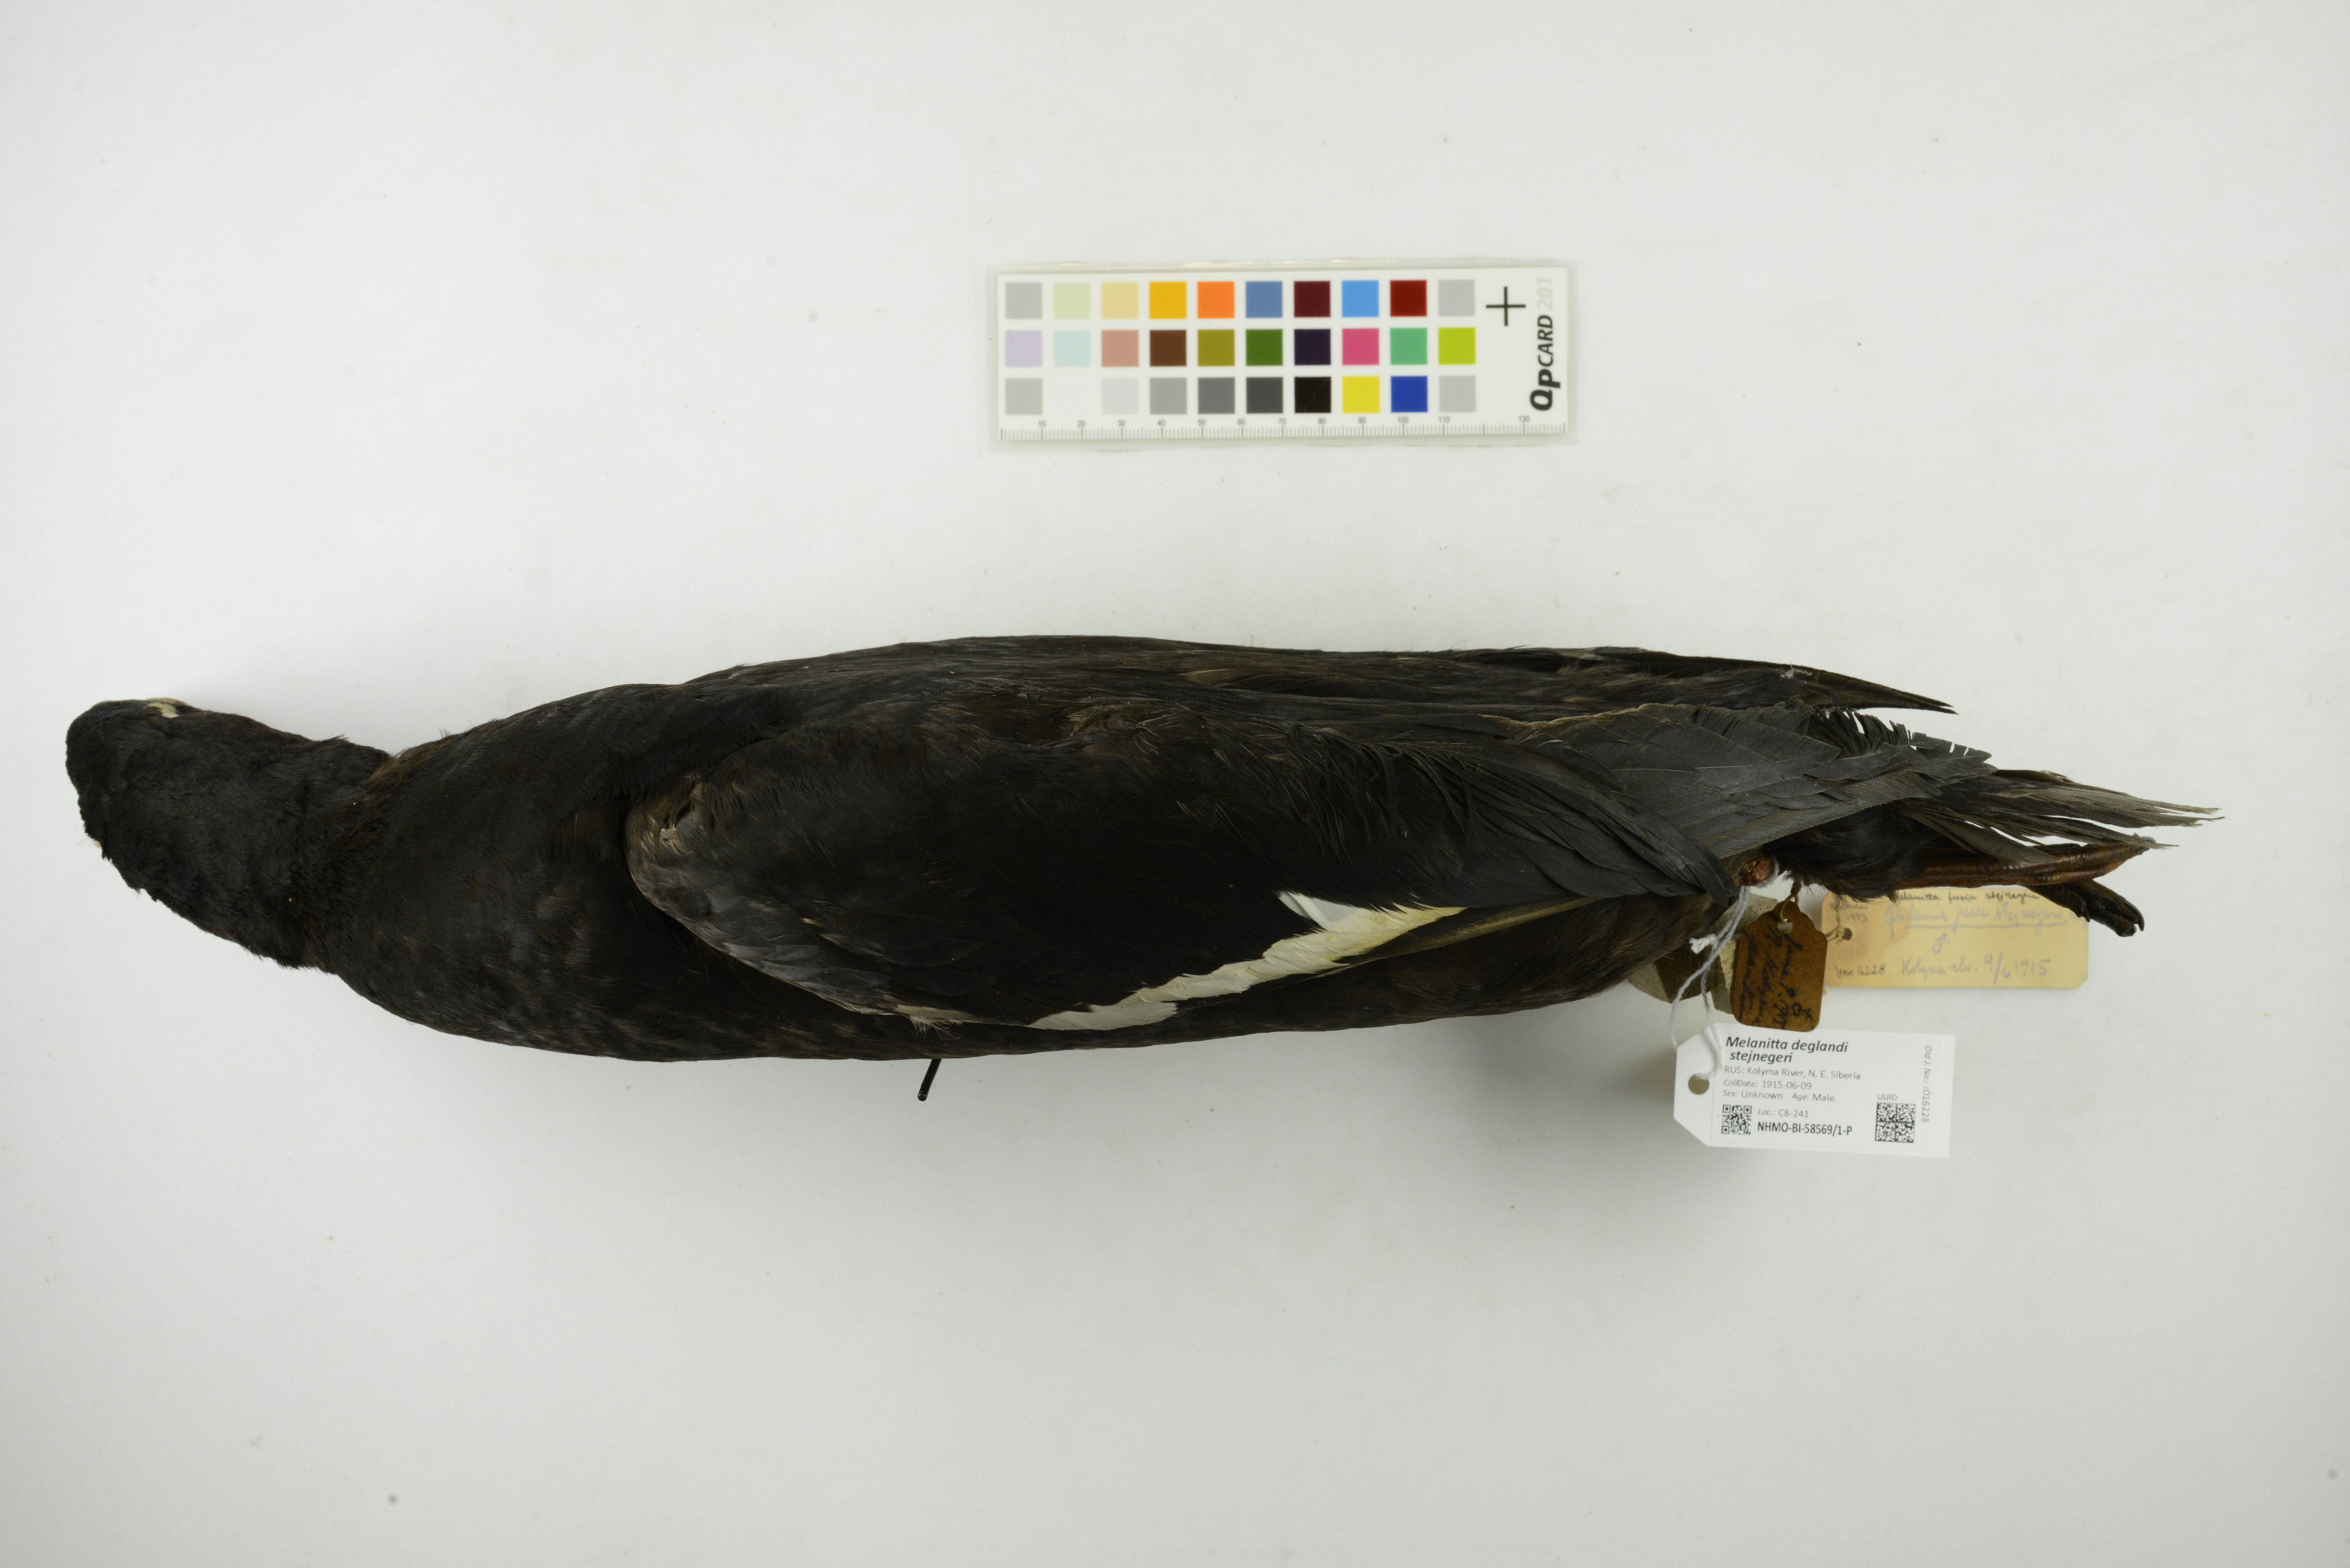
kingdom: Animalia
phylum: Chordata
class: Aves
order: Anseriformes
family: Anatidae
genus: Melanitta
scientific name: Melanitta stejnegeri
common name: Stejneger's scoter
